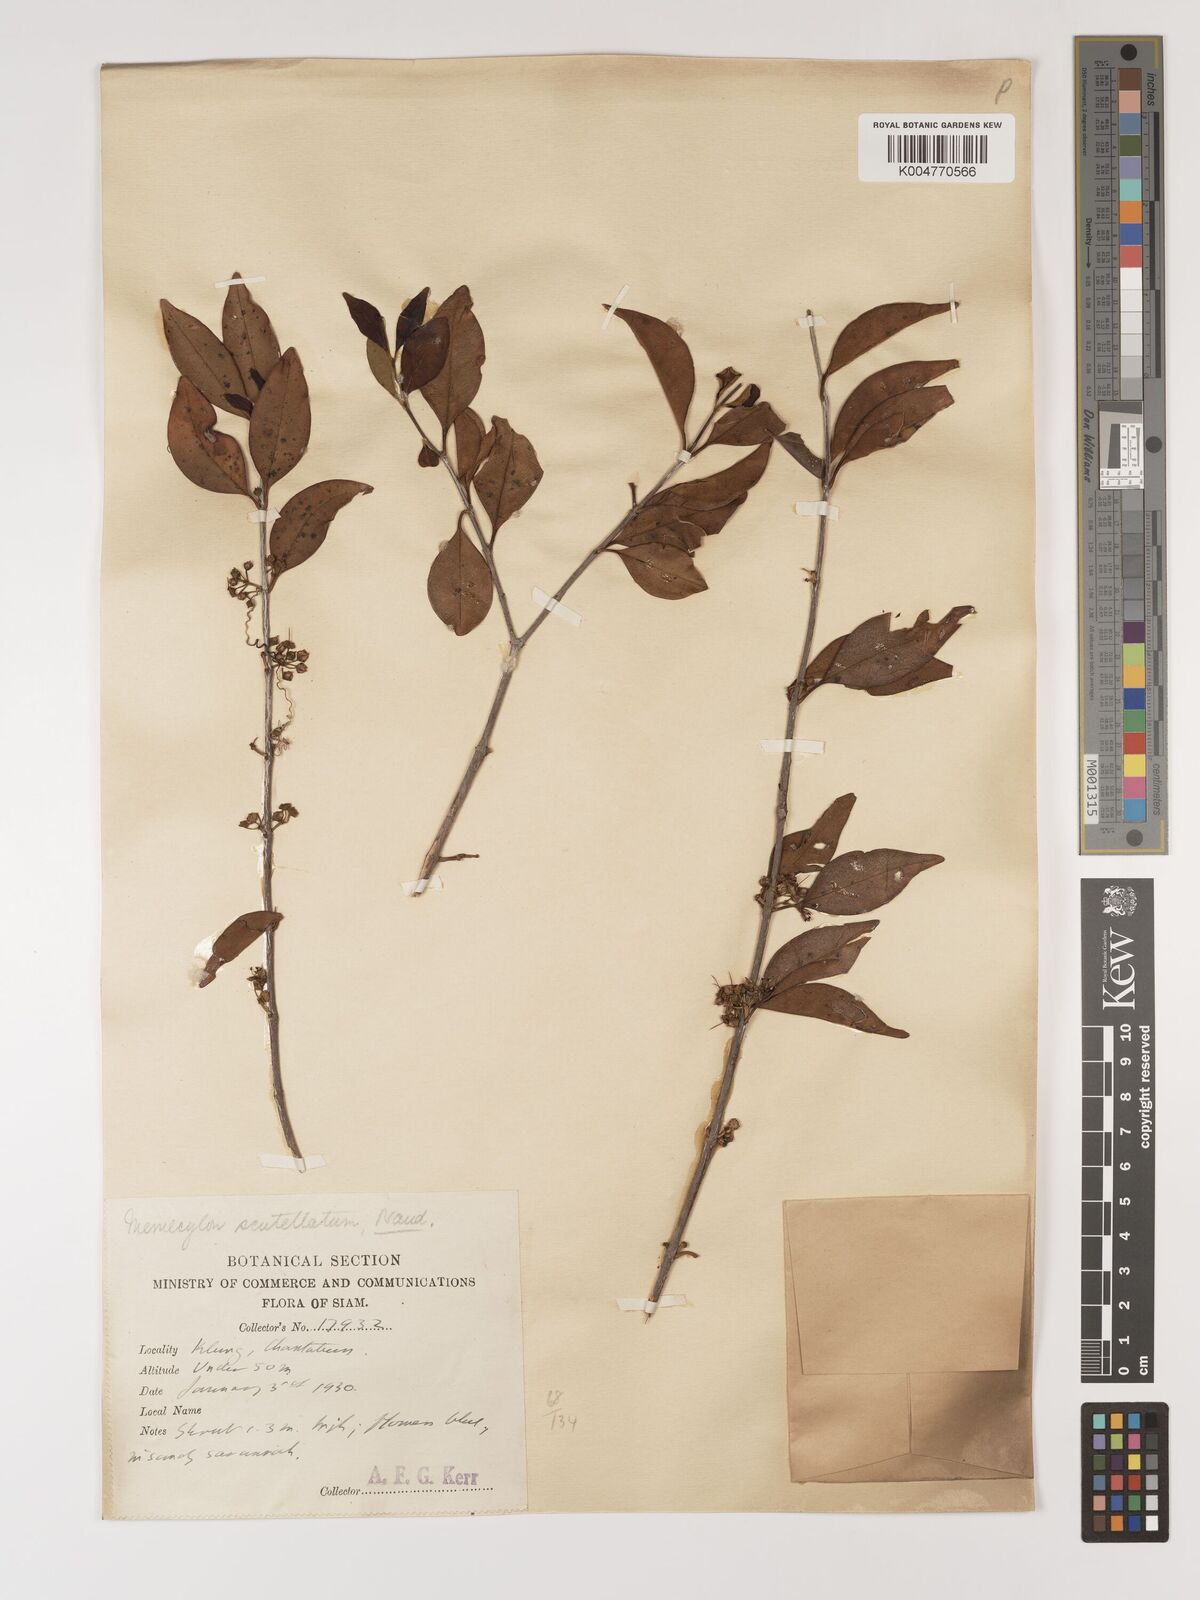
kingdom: Plantae
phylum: Tracheophyta
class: Magnoliopsida
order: Myrtales
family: Melastomataceae
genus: Memecylon
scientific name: Memecylon scutellatum
